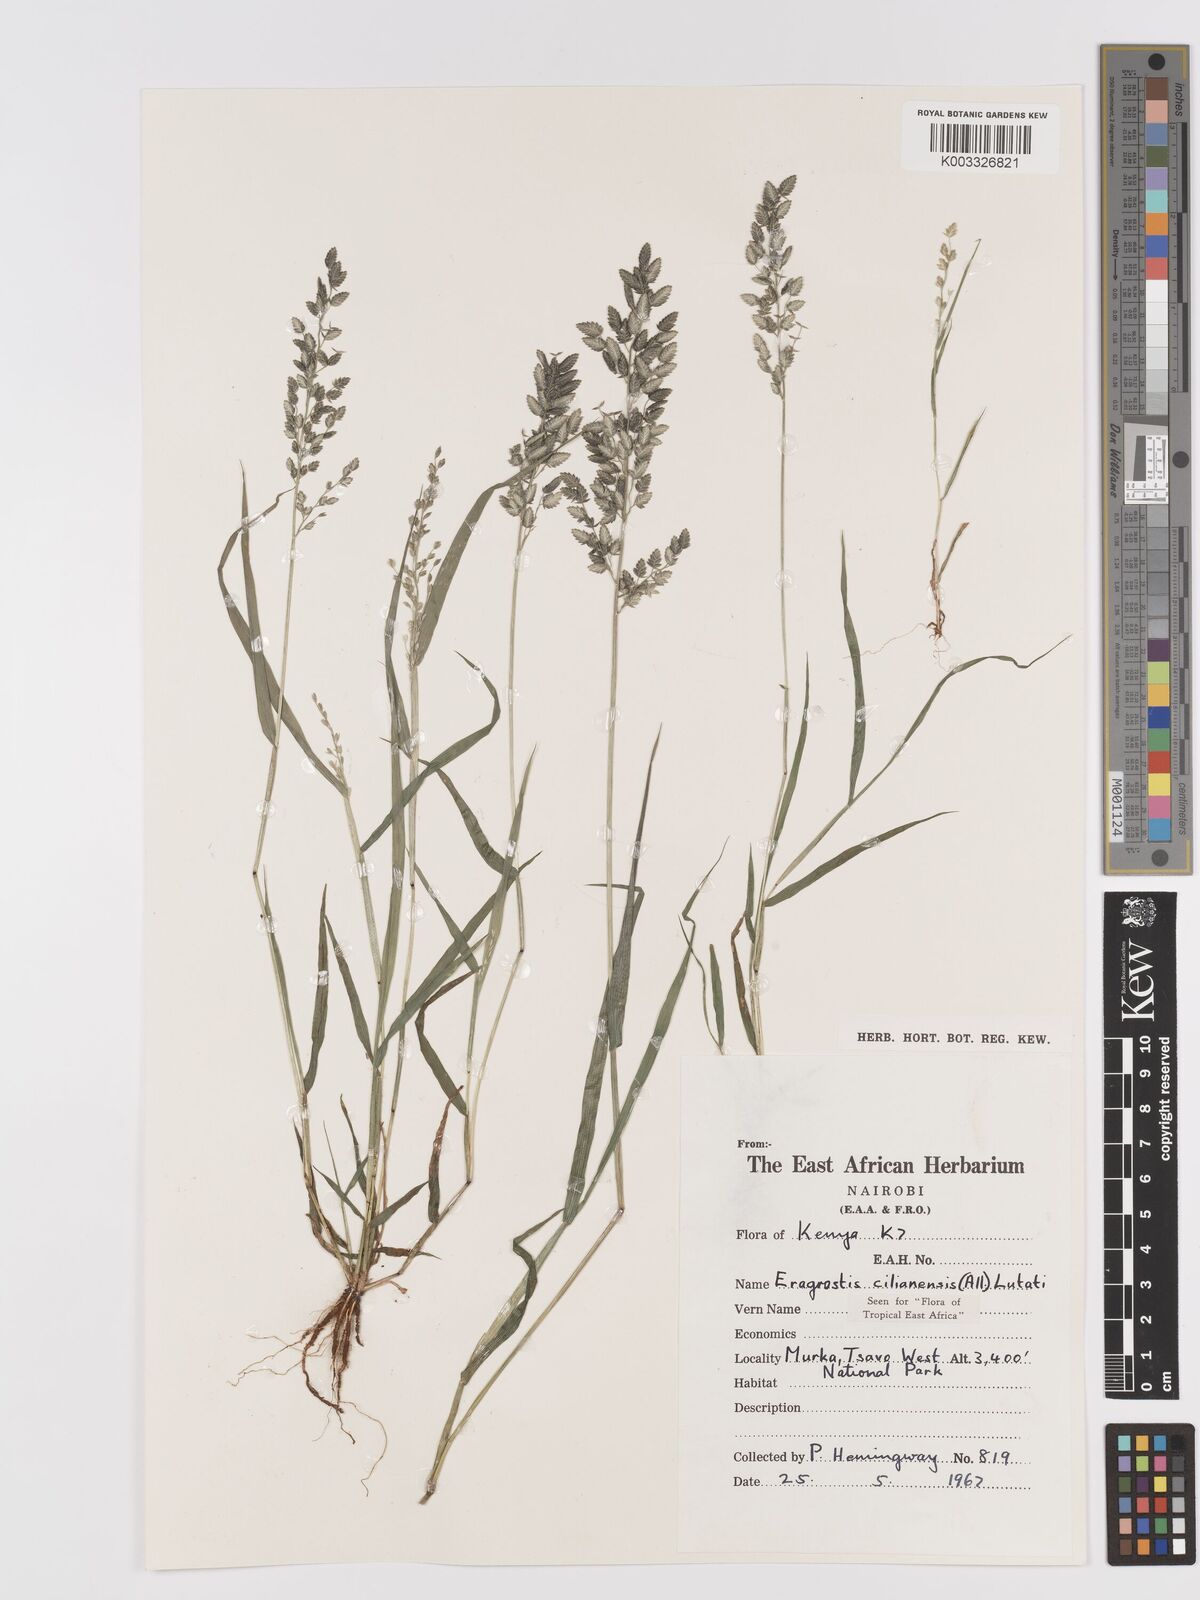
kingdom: Plantae
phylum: Tracheophyta
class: Liliopsida
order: Poales
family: Poaceae
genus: Eragrostis
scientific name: Eragrostis cilianensis
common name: Stinkgrass
